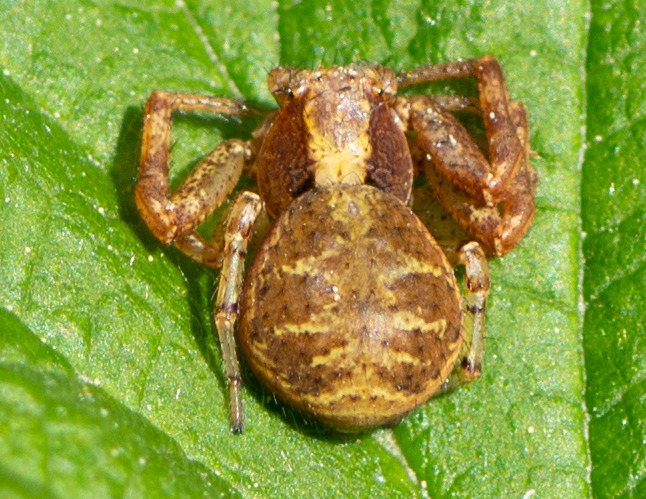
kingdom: Animalia
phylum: Arthropoda
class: Arachnida
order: Araneae
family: Thomisidae
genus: Xysticus
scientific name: Xysticus lanio
